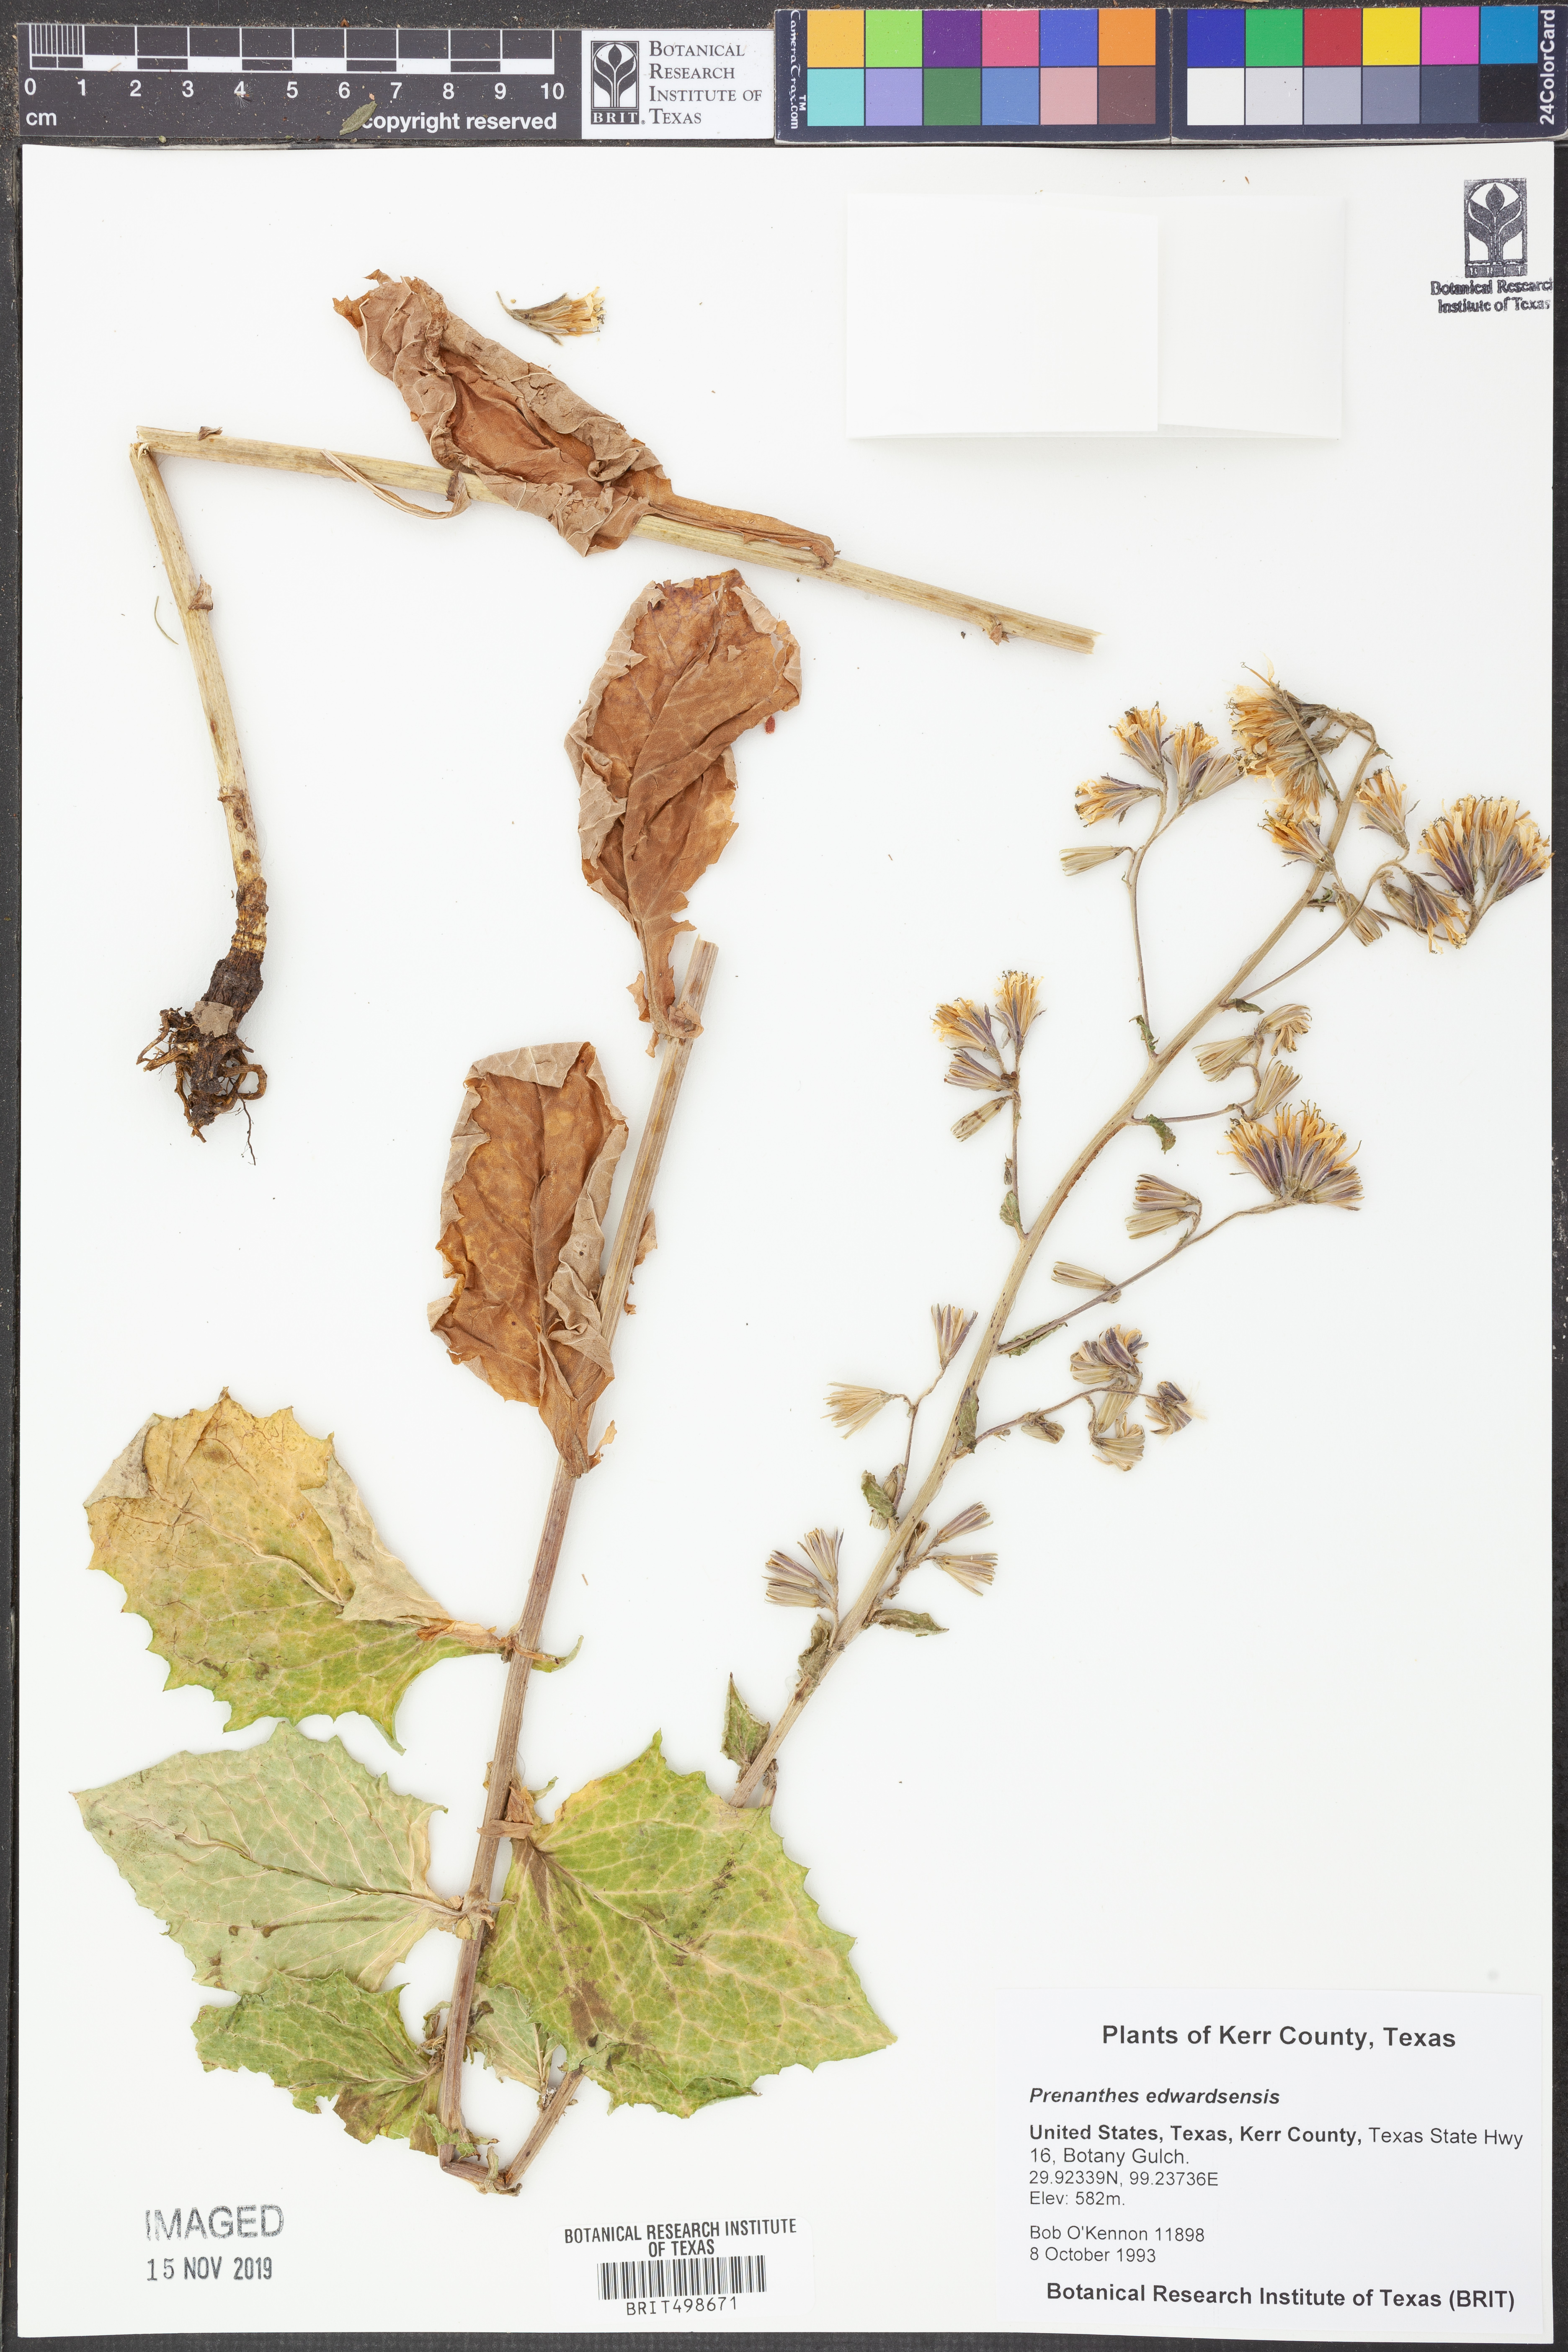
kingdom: Plantae
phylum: Tracheophyta
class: Magnoliopsida
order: Asterales
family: Asteraceae
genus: Prenanthes
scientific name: Prenanthes
